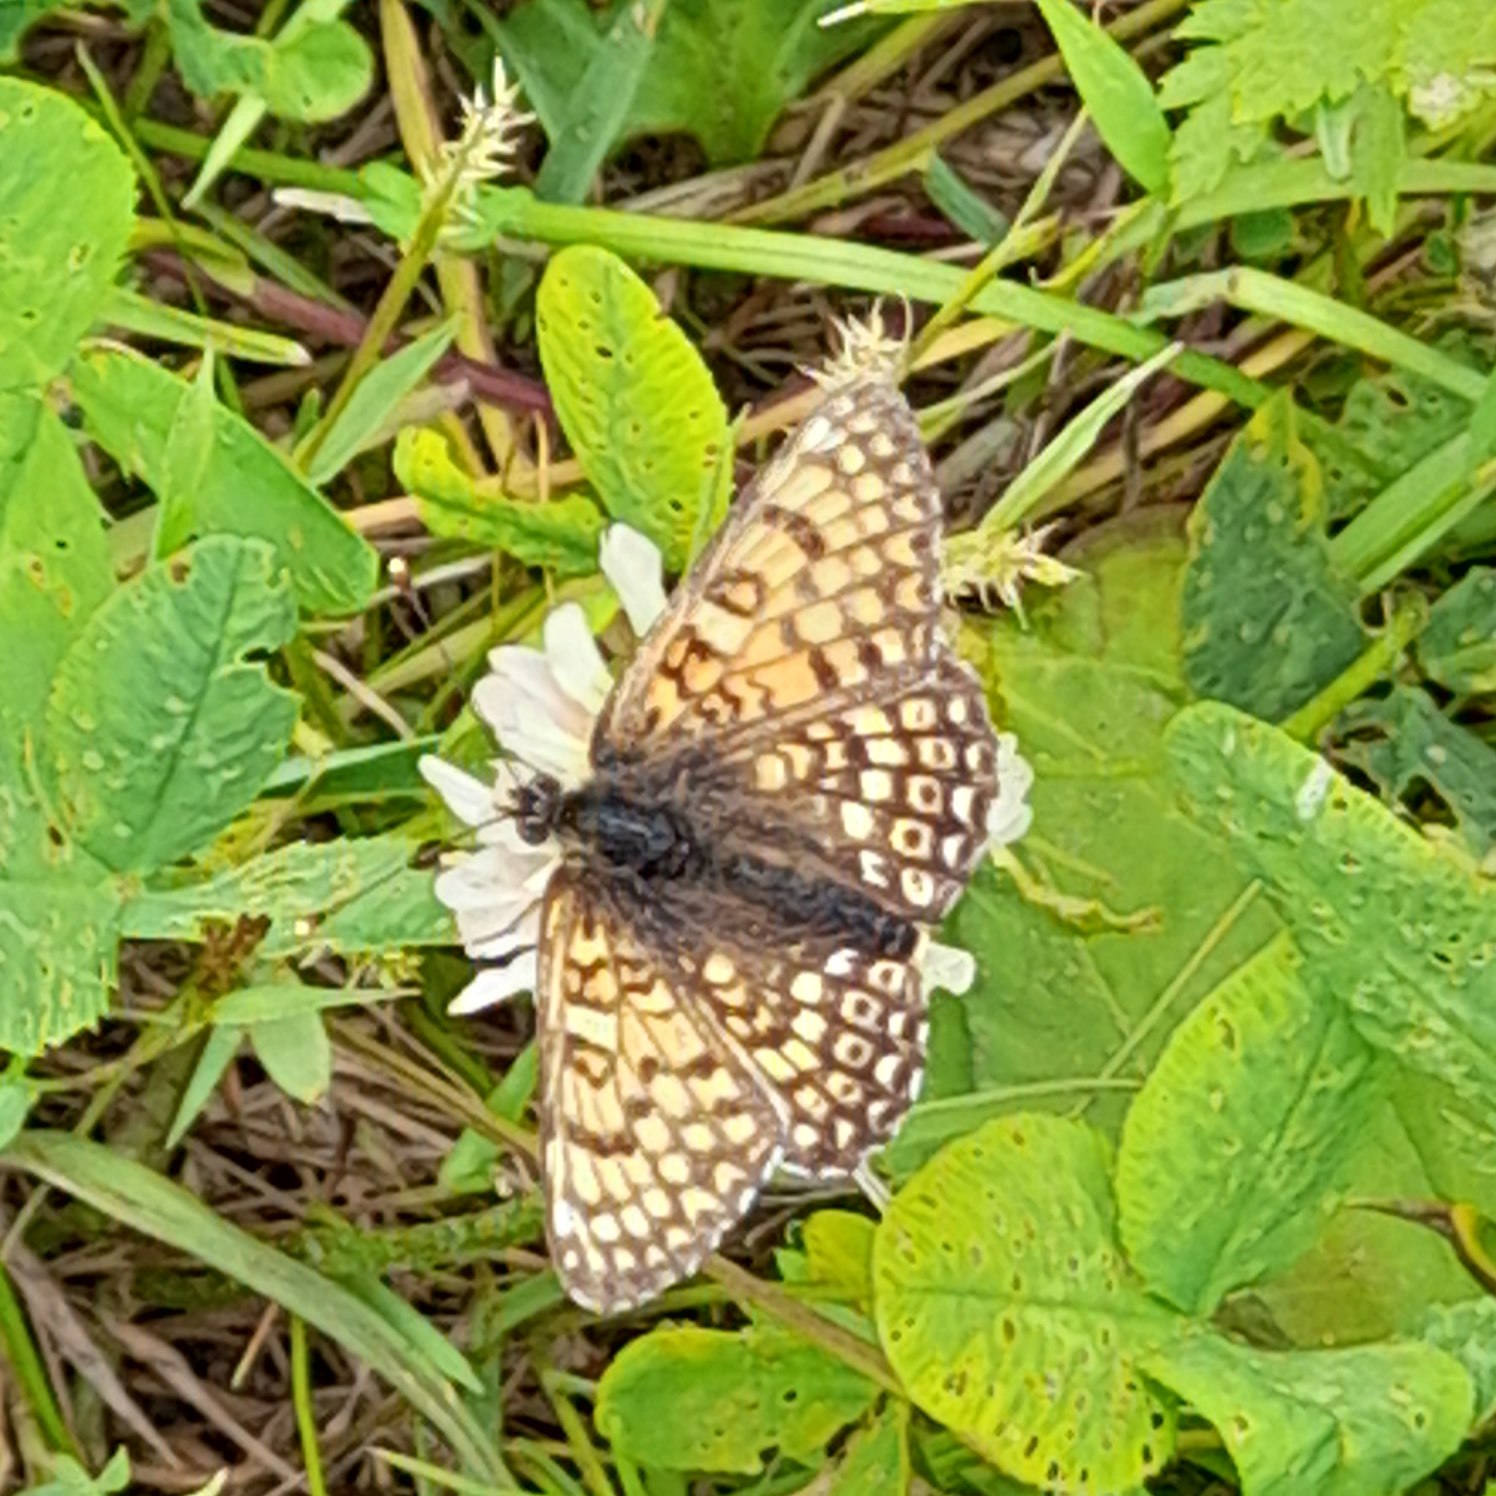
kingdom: Animalia
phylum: Arthropoda
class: Insecta
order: Lepidoptera
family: Nymphalidae
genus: Melitaea
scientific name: Melitaea cinxia
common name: Okkergul pletvinge
